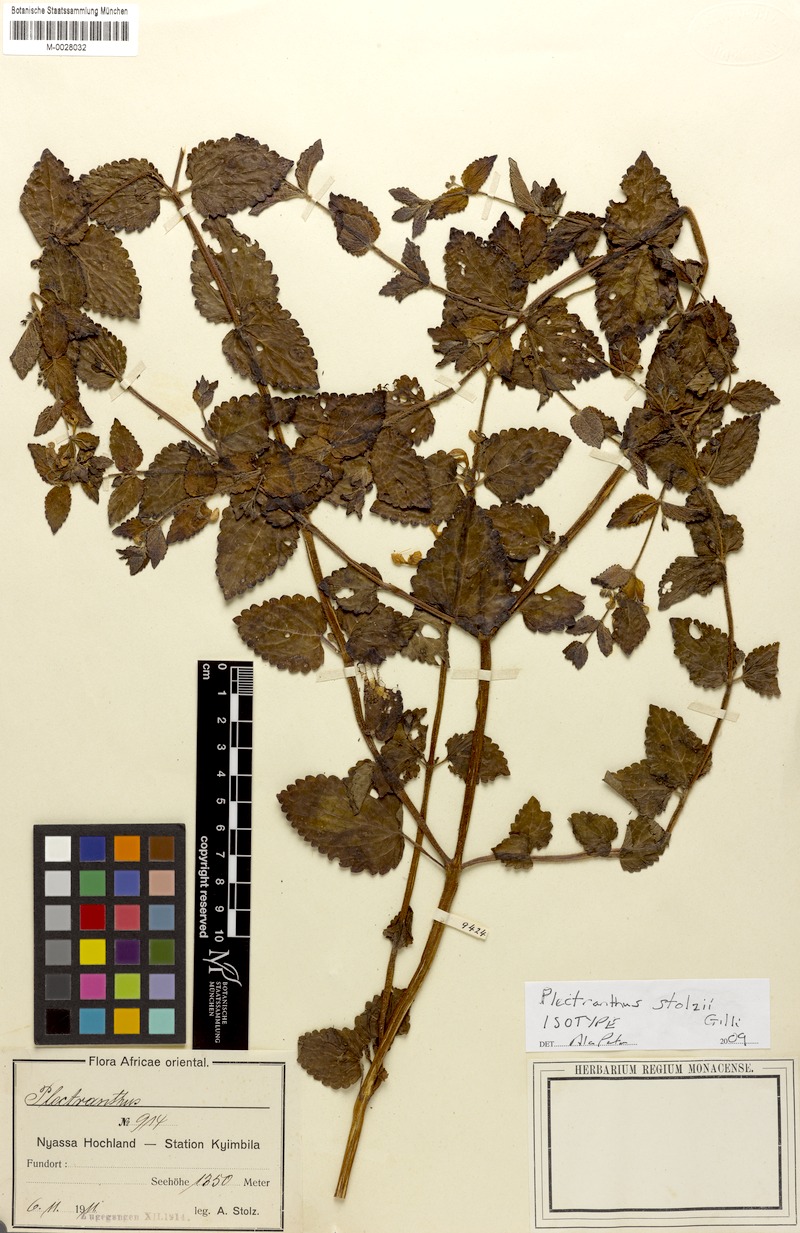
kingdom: Plantae
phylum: Tracheophyta
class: Magnoliopsida
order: Lamiales
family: Lamiaceae
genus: Equilabium
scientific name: Equilabium stolzii
